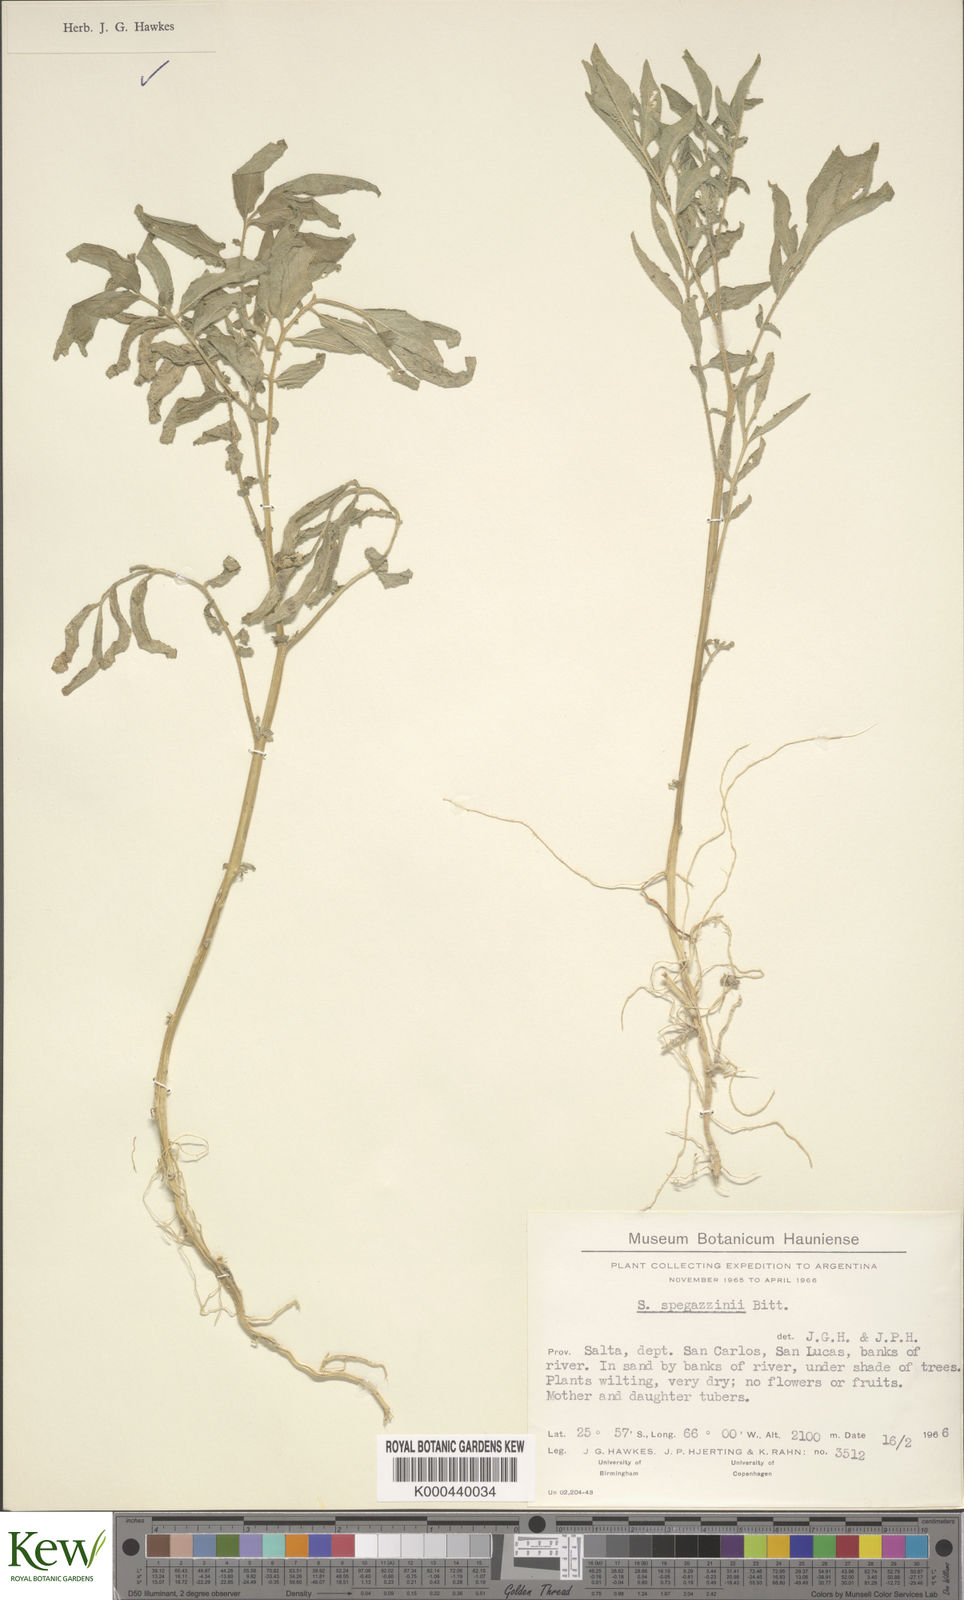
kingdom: Plantae
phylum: Tracheophyta
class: Magnoliopsida
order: Solanales
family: Solanaceae
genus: Solanum
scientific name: Solanum brevicaule
